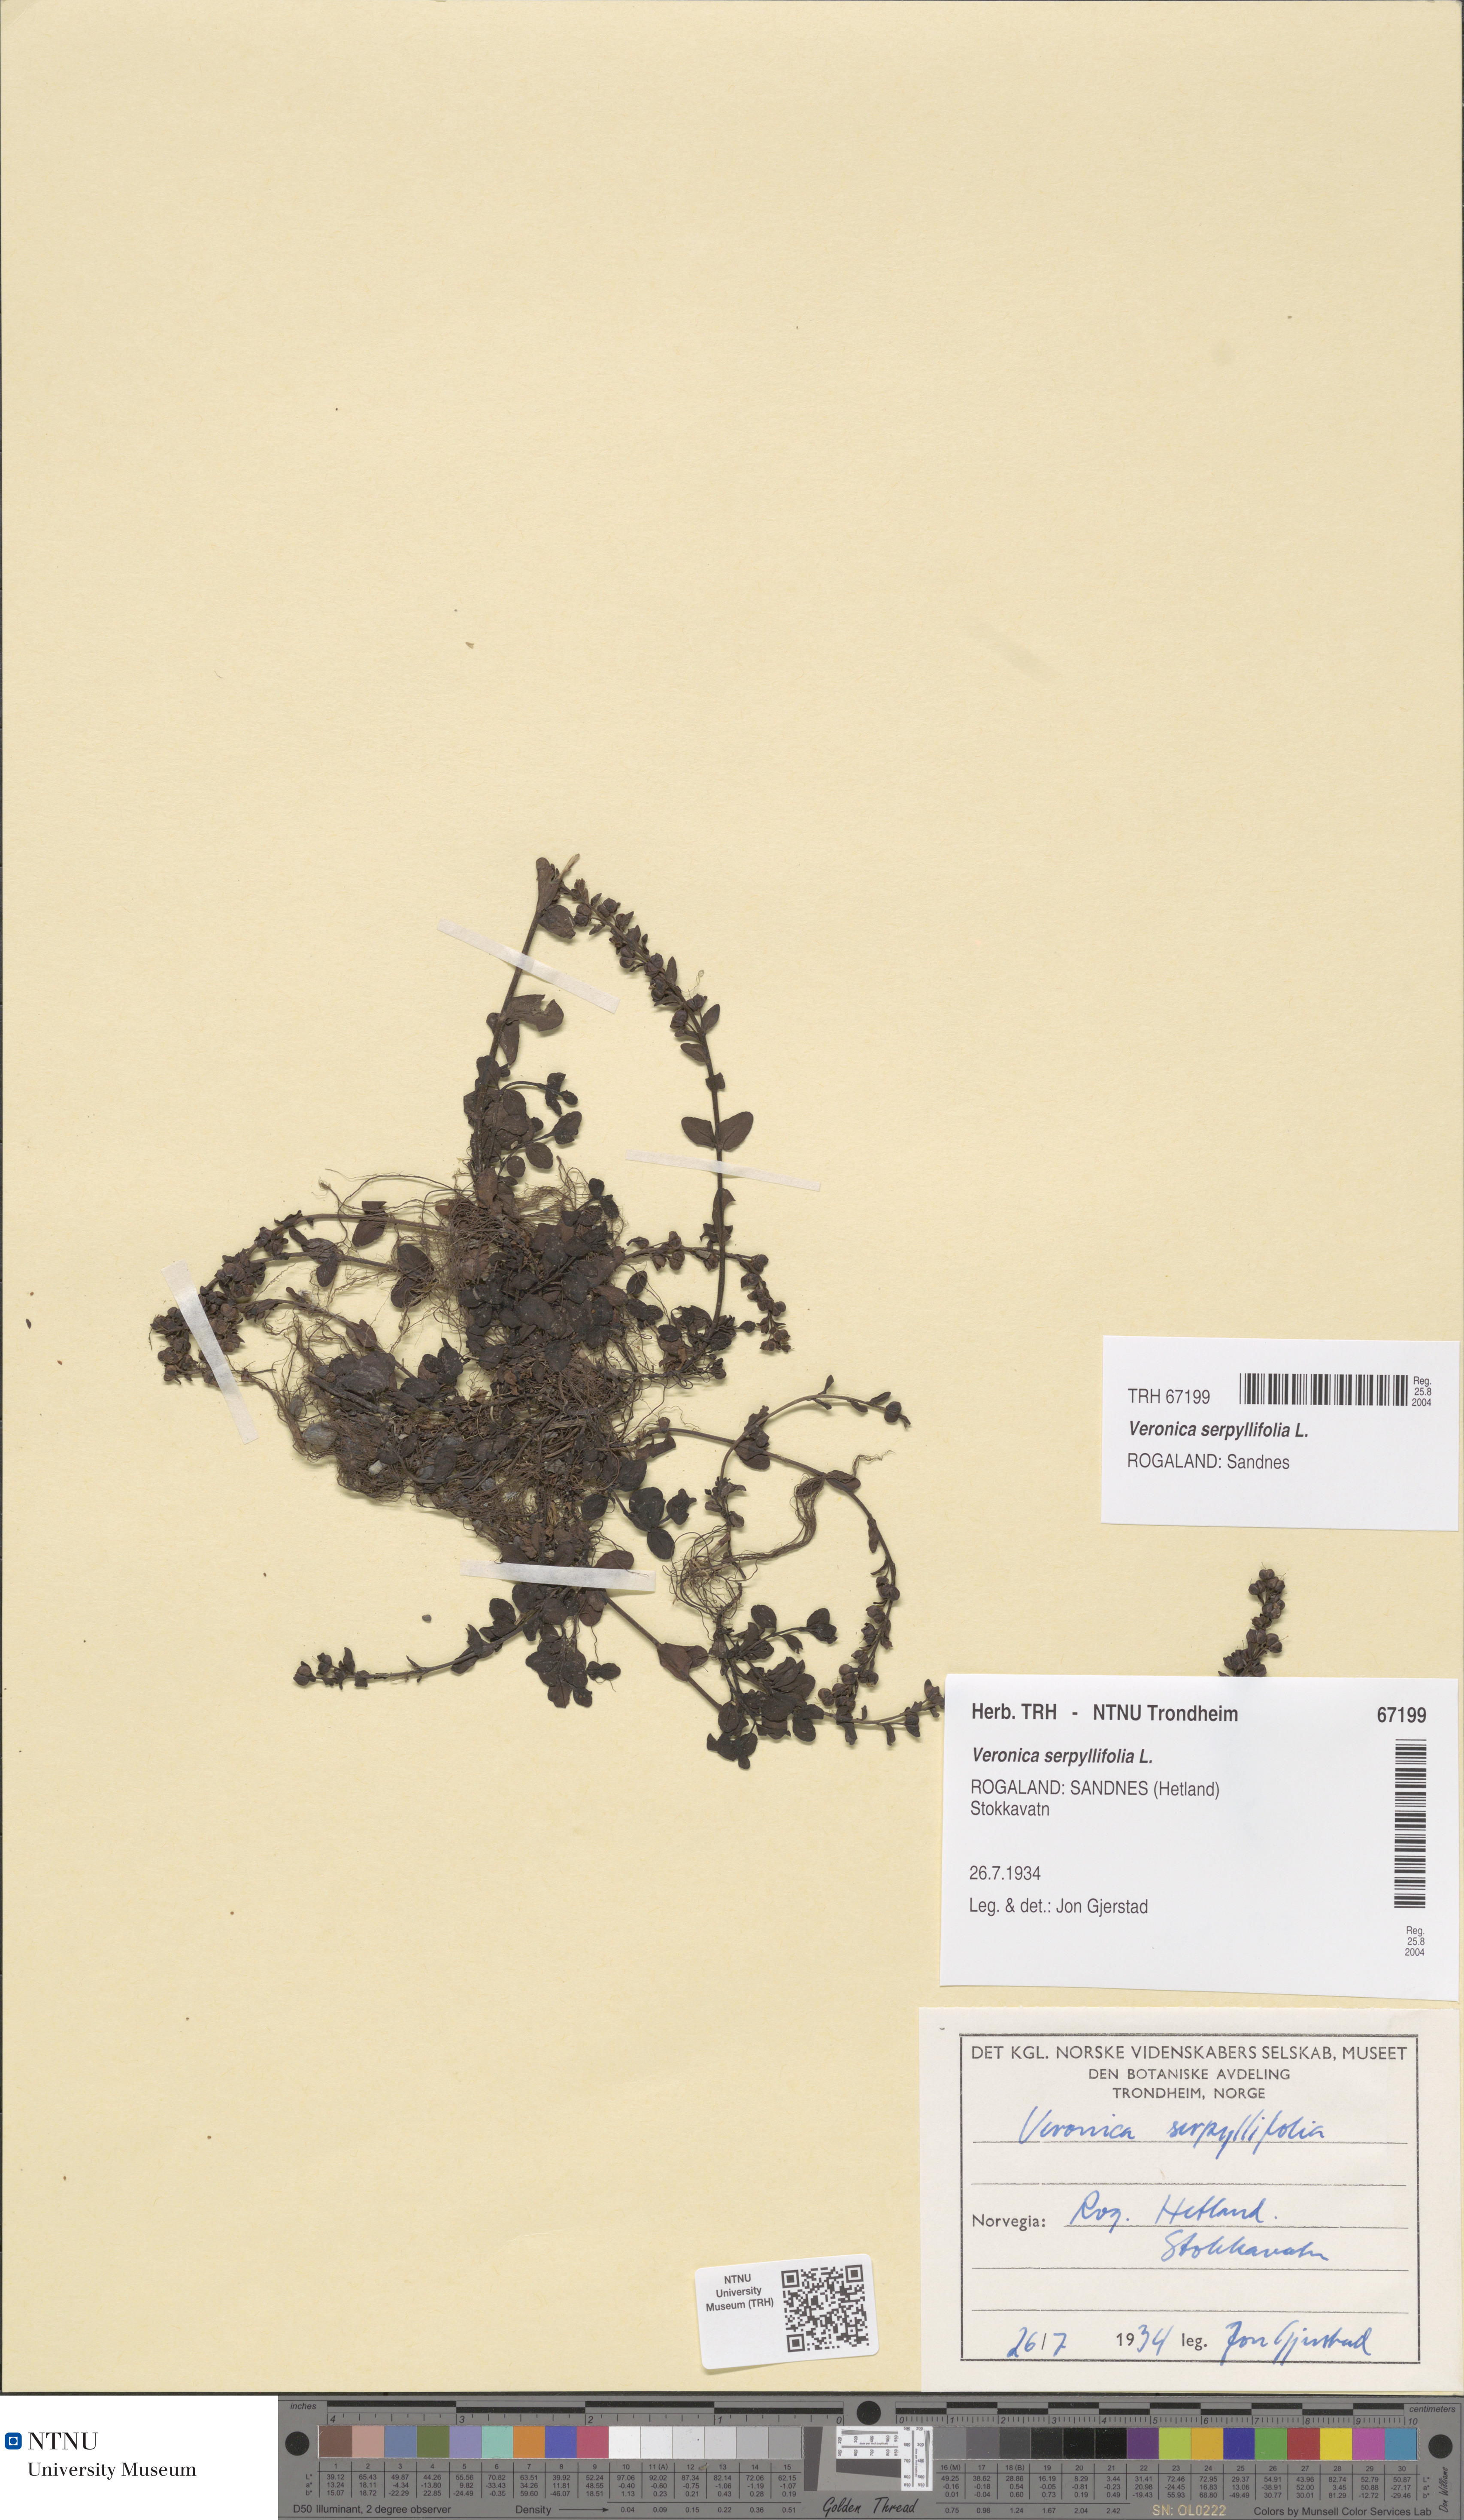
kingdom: Plantae
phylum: Tracheophyta
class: Magnoliopsida
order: Lamiales
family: Plantaginaceae
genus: Veronica
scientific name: Veronica serpyllifolia
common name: Thyme-leaved speedwell
